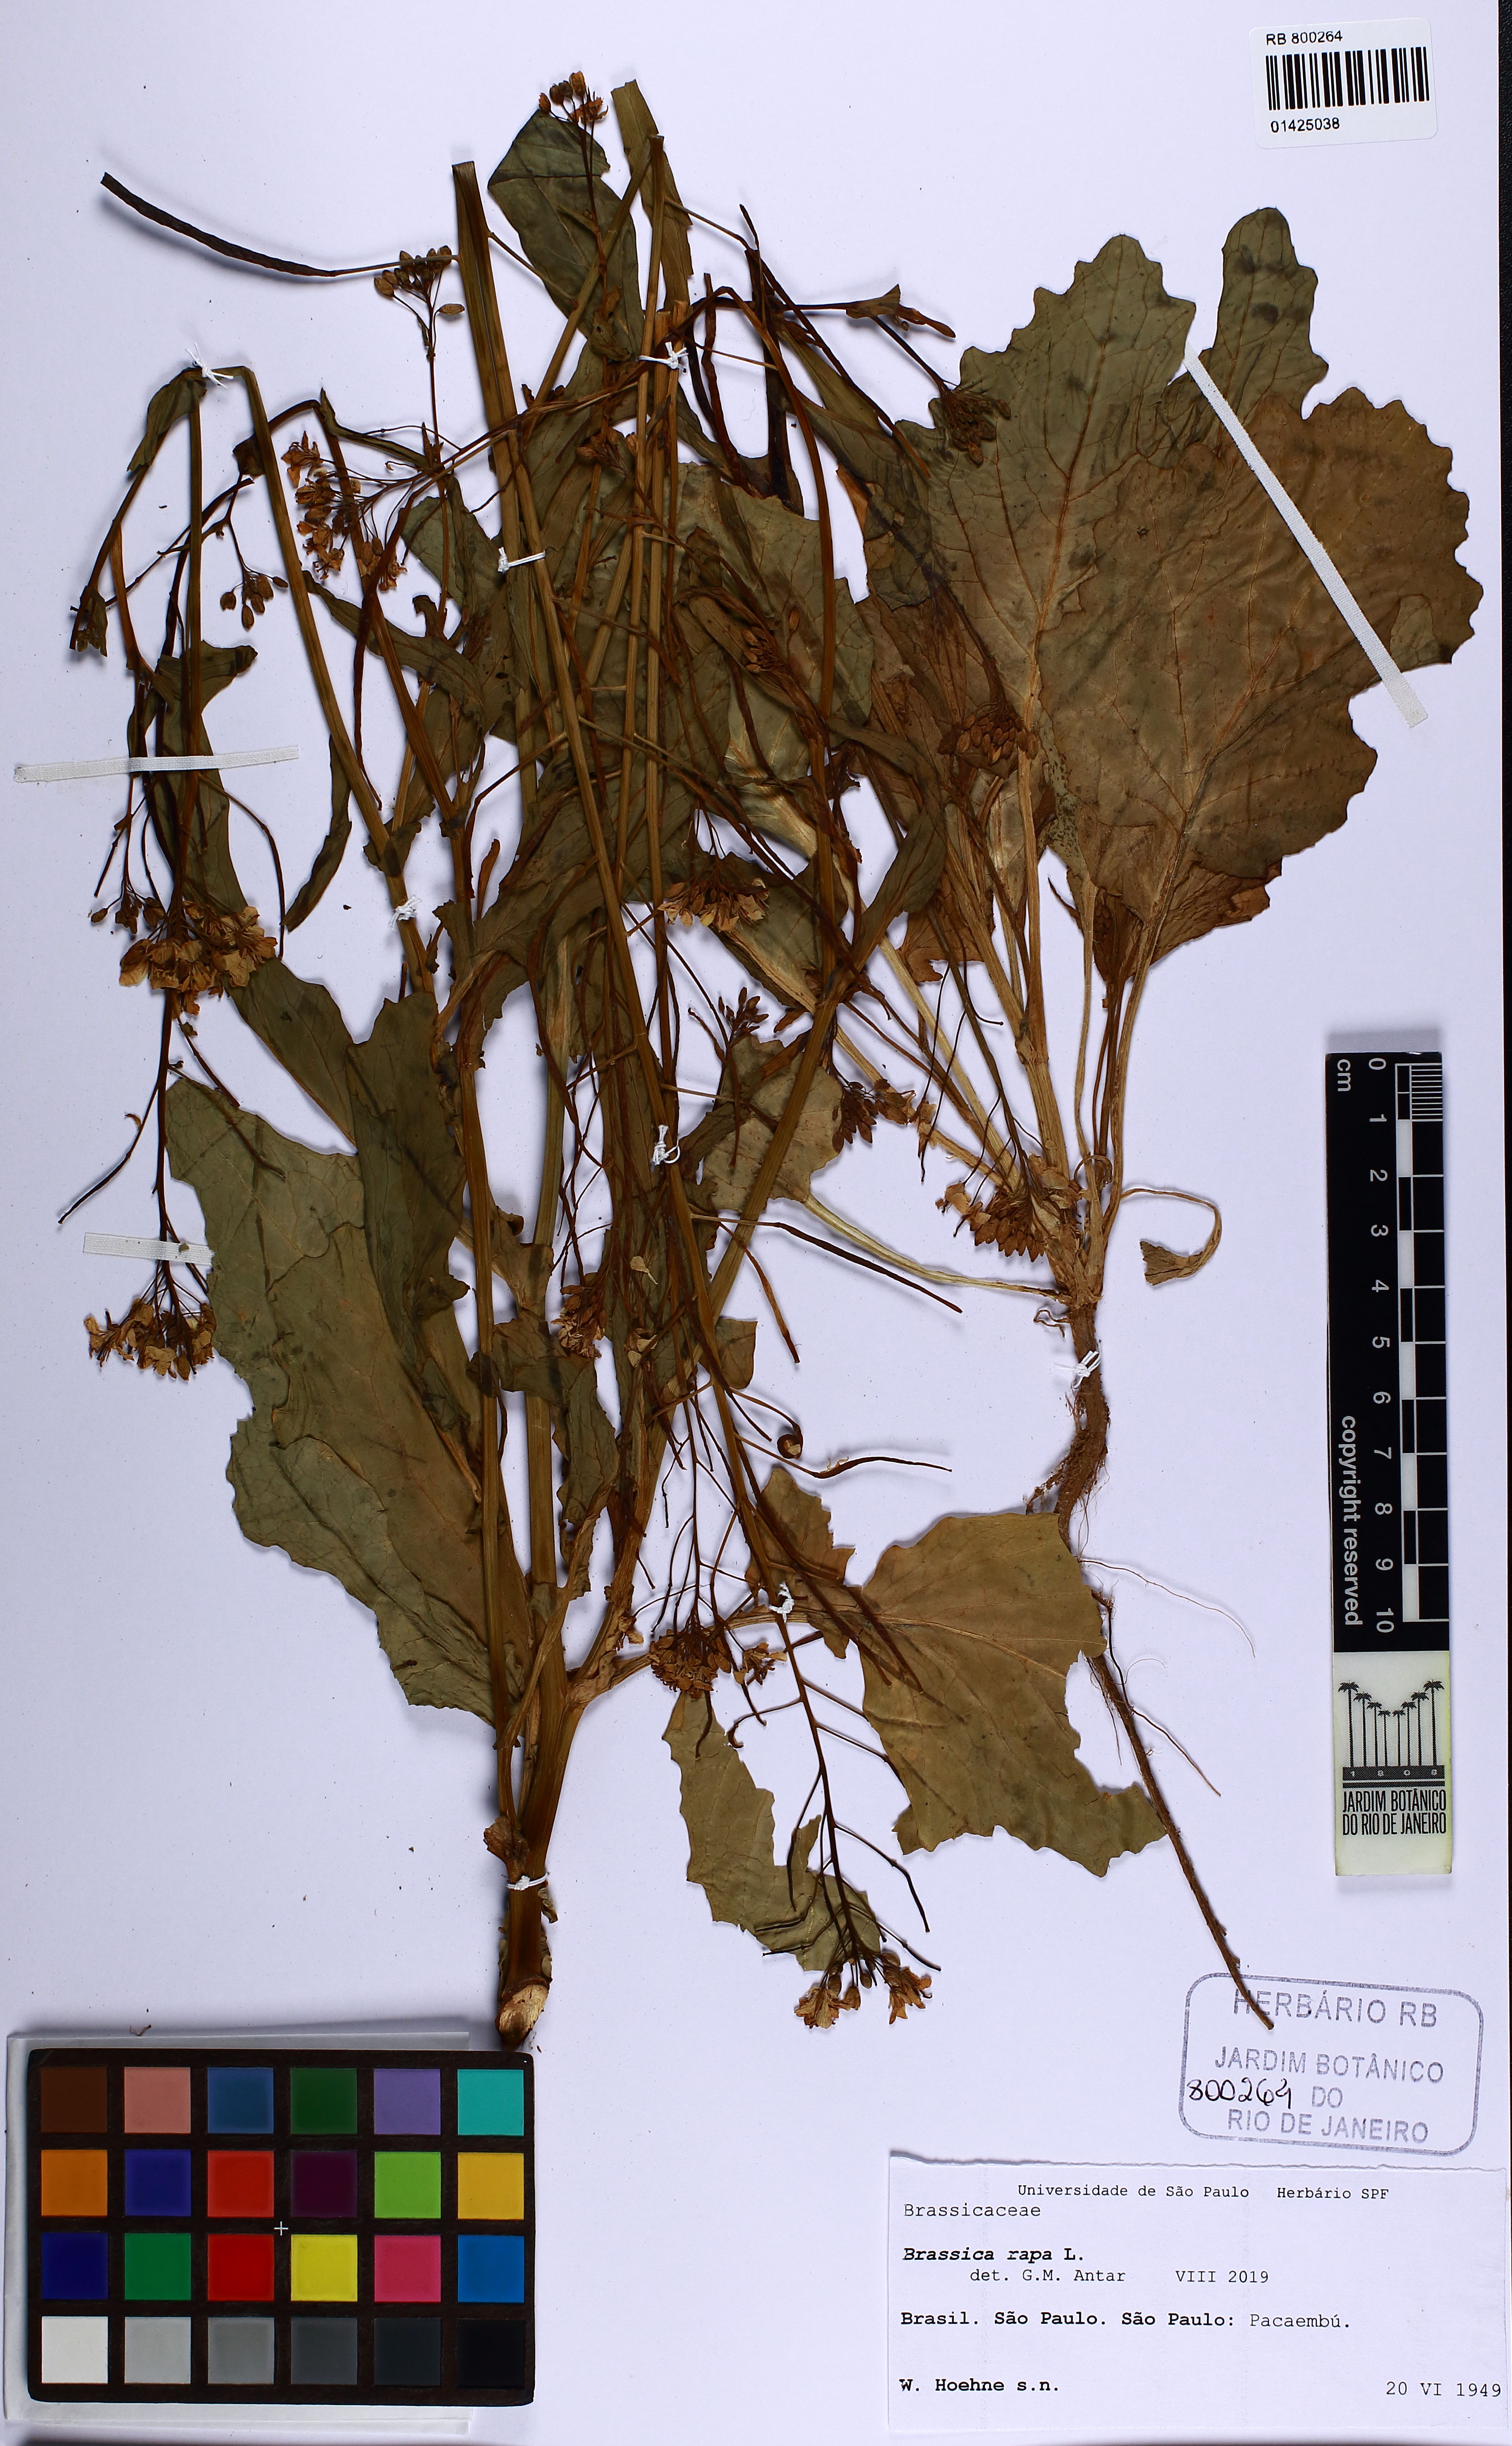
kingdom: Plantae
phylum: Tracheophyta
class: Magnoliopsida
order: Brassicales
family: Brassicaceae
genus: Brassica
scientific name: Brassica rapa
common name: Field mustard
